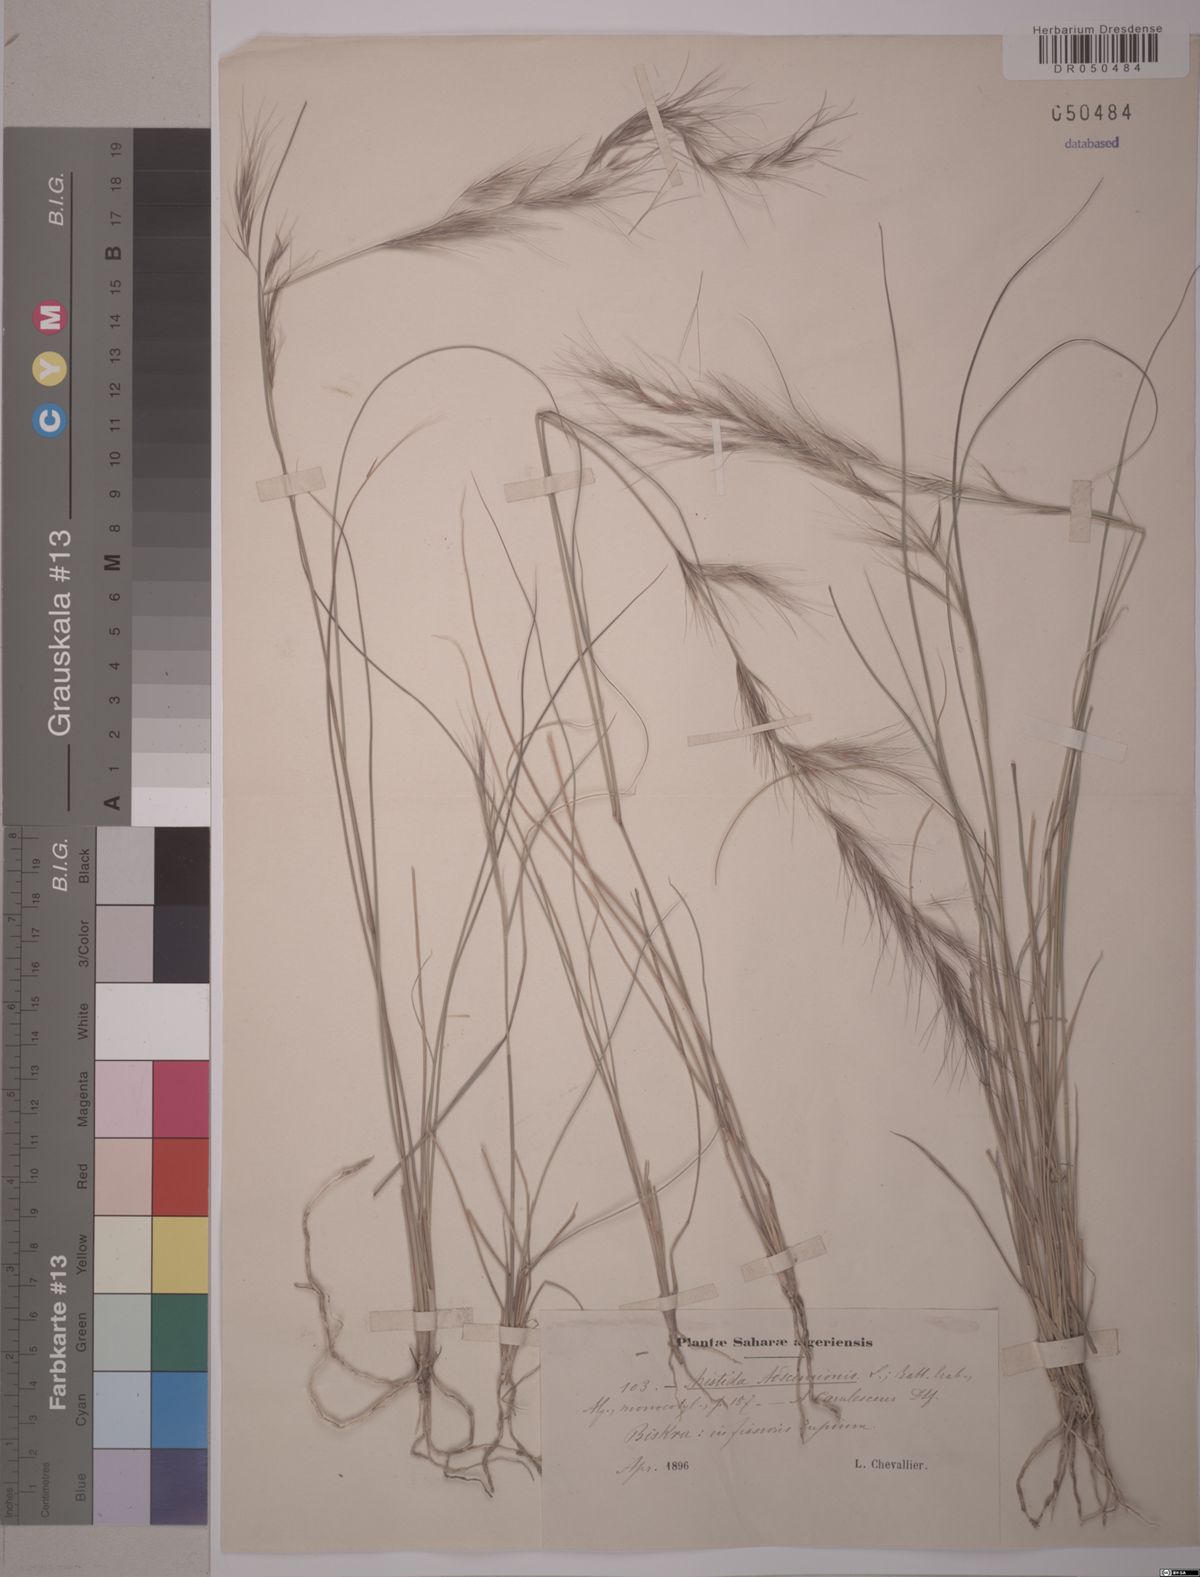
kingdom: Plantae
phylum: Tracheophyta
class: Liliopsida
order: Poales
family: Poaceae
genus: Aristida
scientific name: Aristida adscensionis
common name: Sixweeks threeawn
